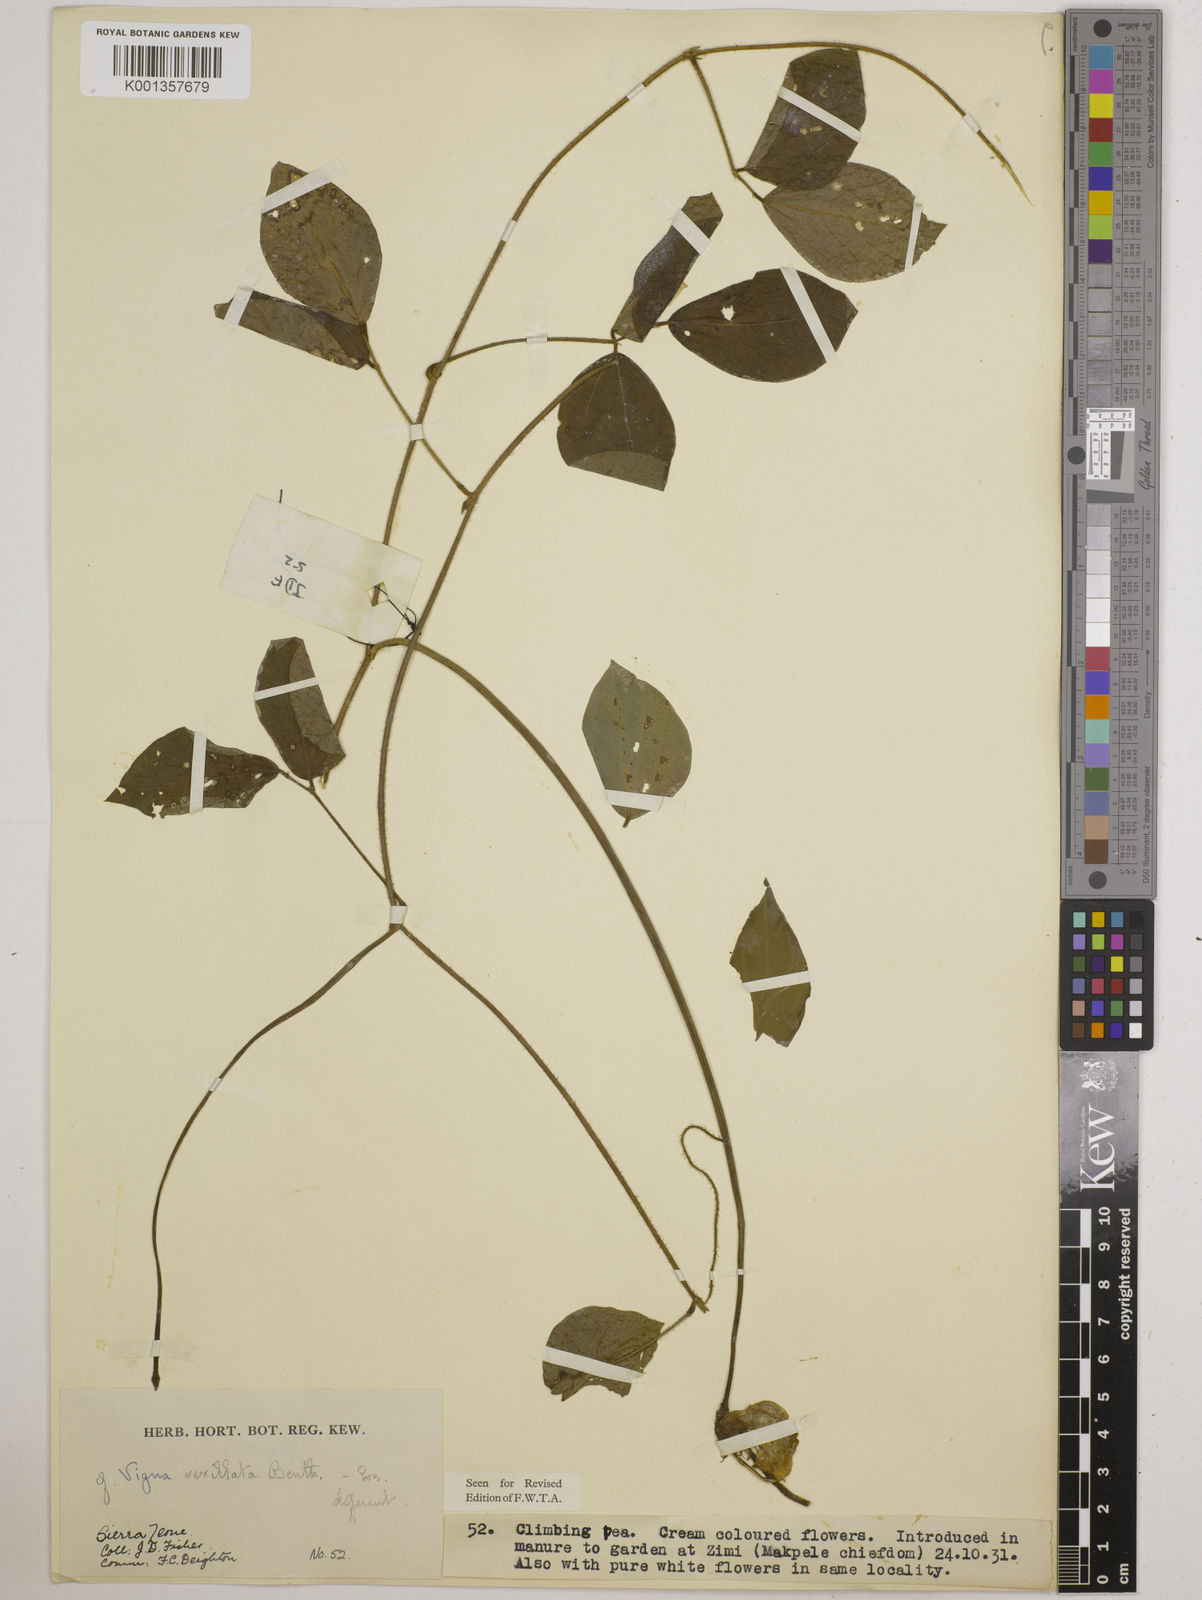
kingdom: Plantae
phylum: Tracheophyta
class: Magnoliopsida
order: Fabales
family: Fabaceae
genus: Vigna
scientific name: Vigna
